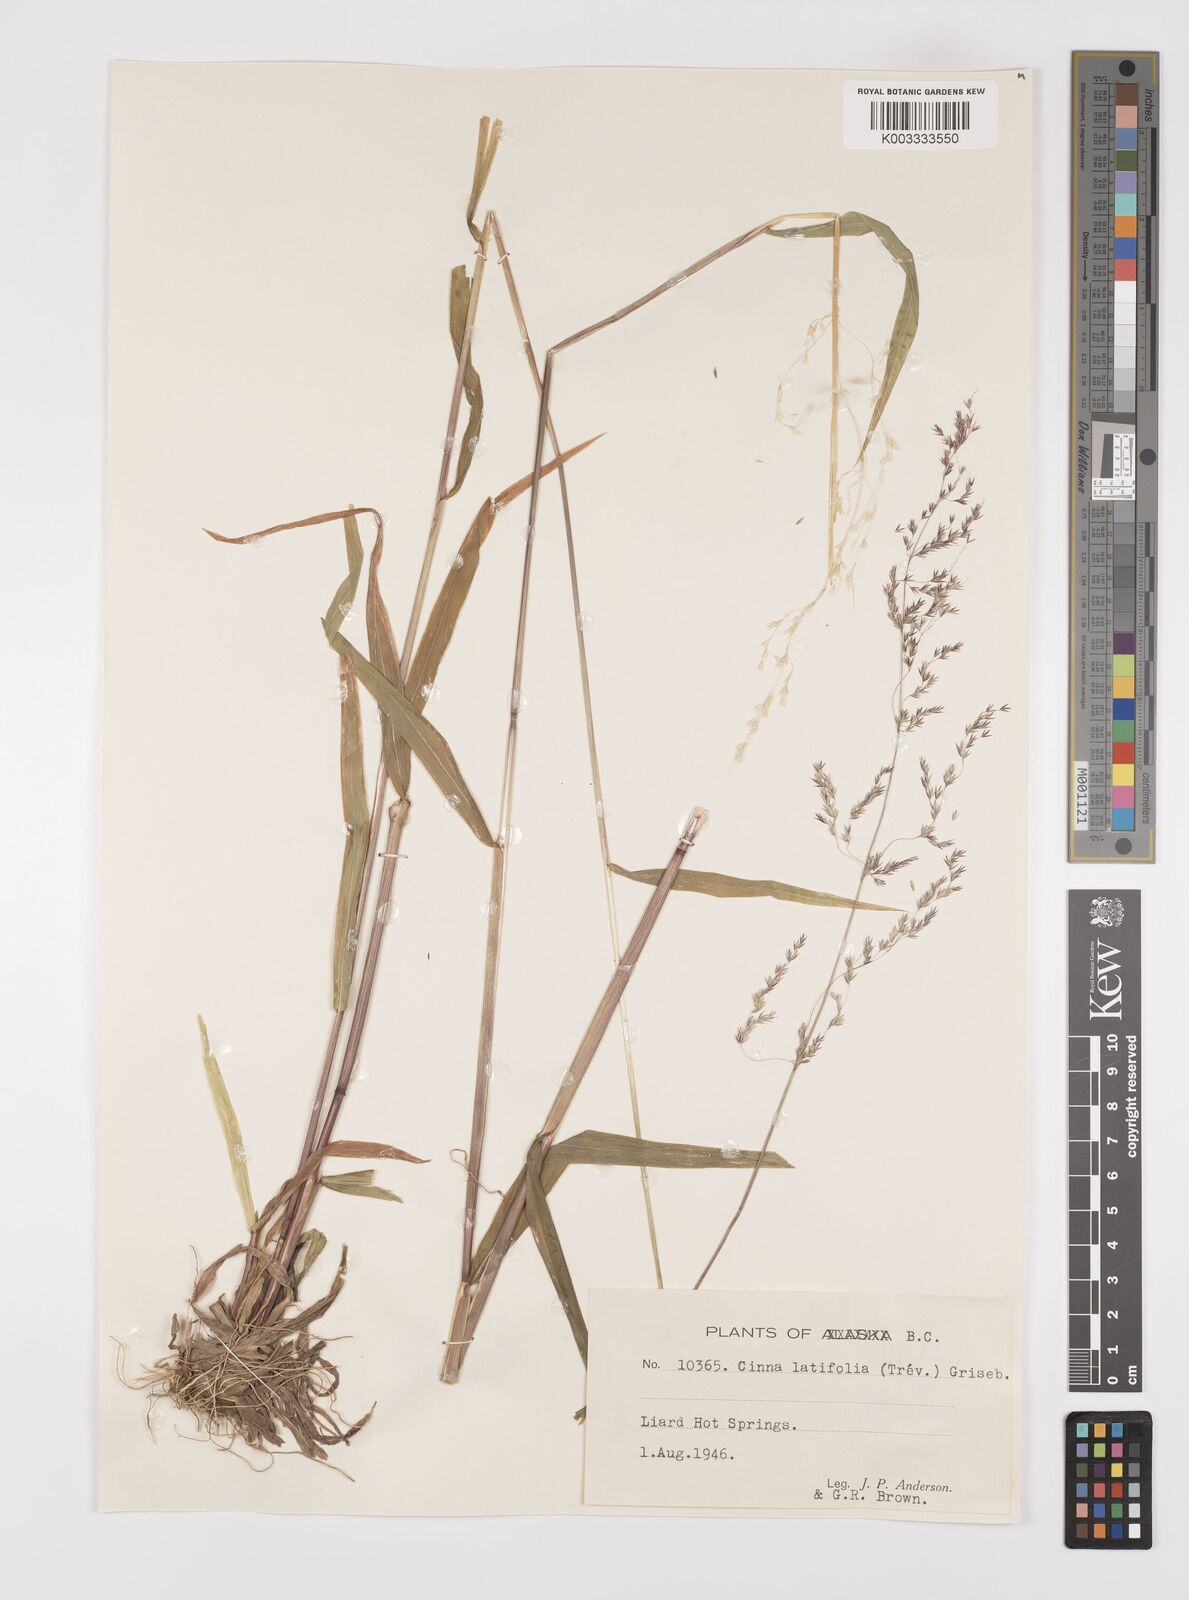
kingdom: Plantae
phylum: Tracheophyta
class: Liliopsida
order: Poales
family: Poaceae
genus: Cinna
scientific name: Cinna latifolia
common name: Drooping woodreed
